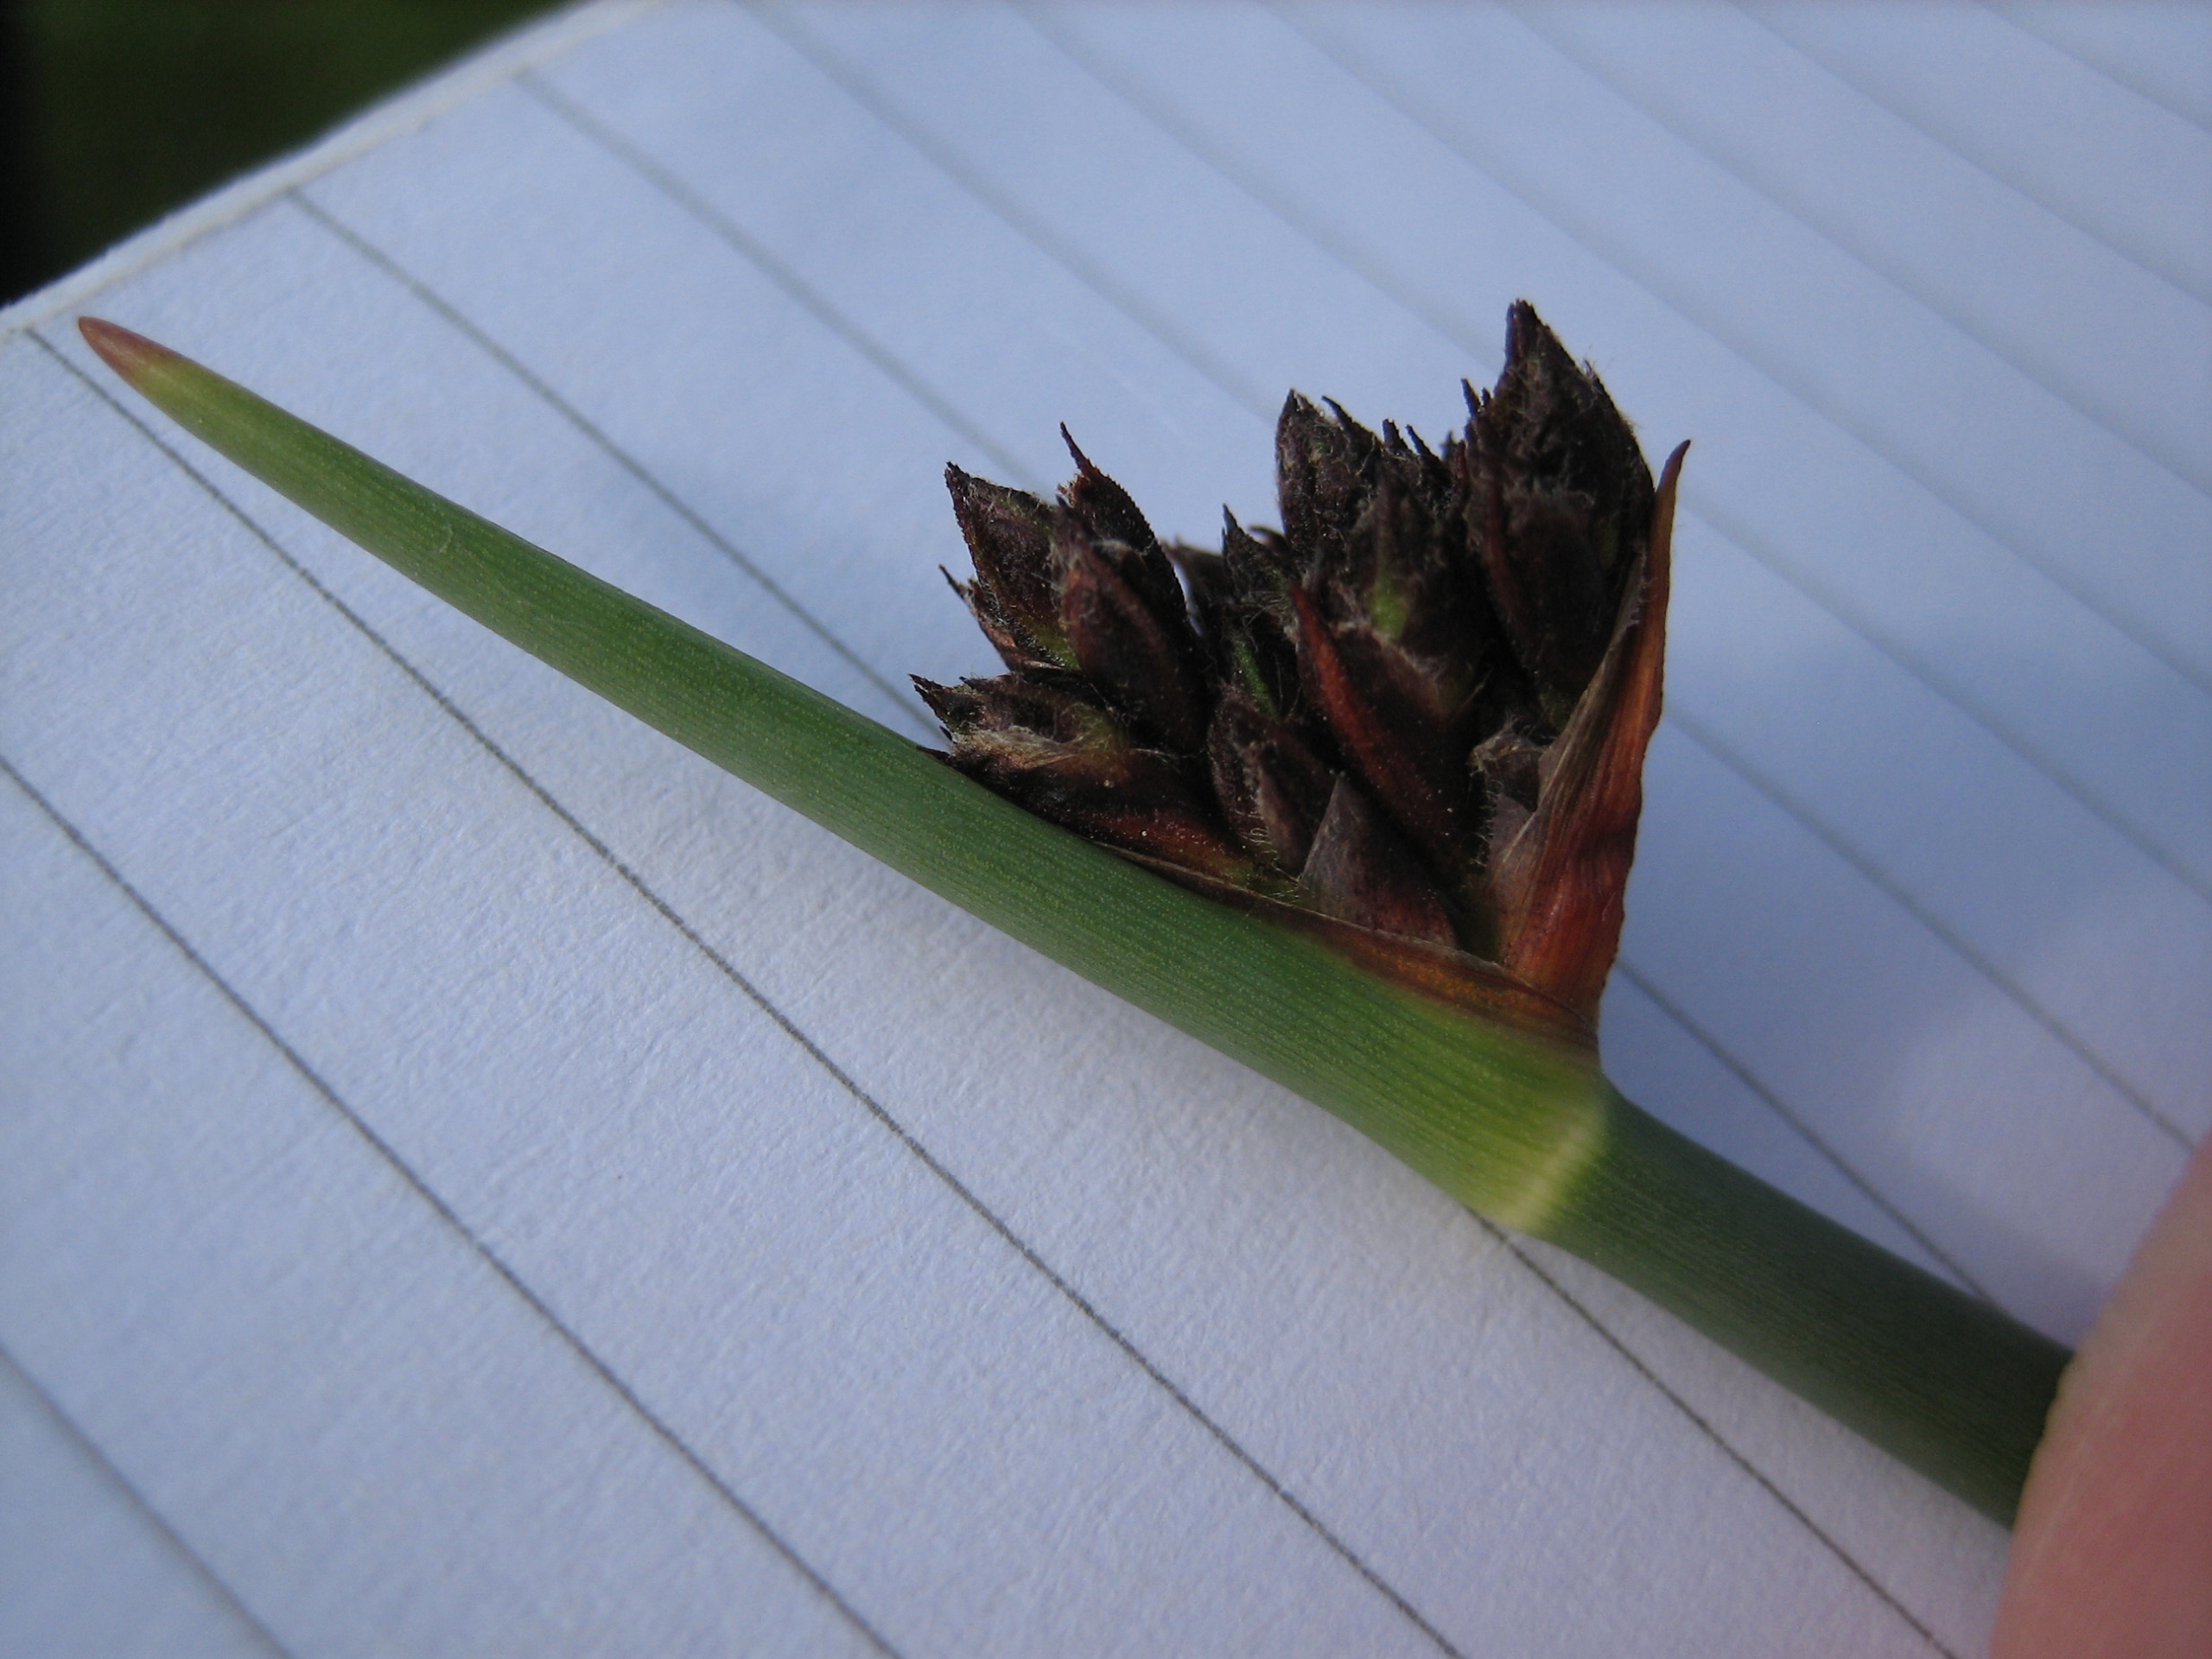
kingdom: Plantae
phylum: Tracheophyta
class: Liliopsida
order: Poales
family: Cyperaceae
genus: Schoenoplectus
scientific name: Schoenoplectus tabernaemontani
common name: Blågrøn kogleaks
